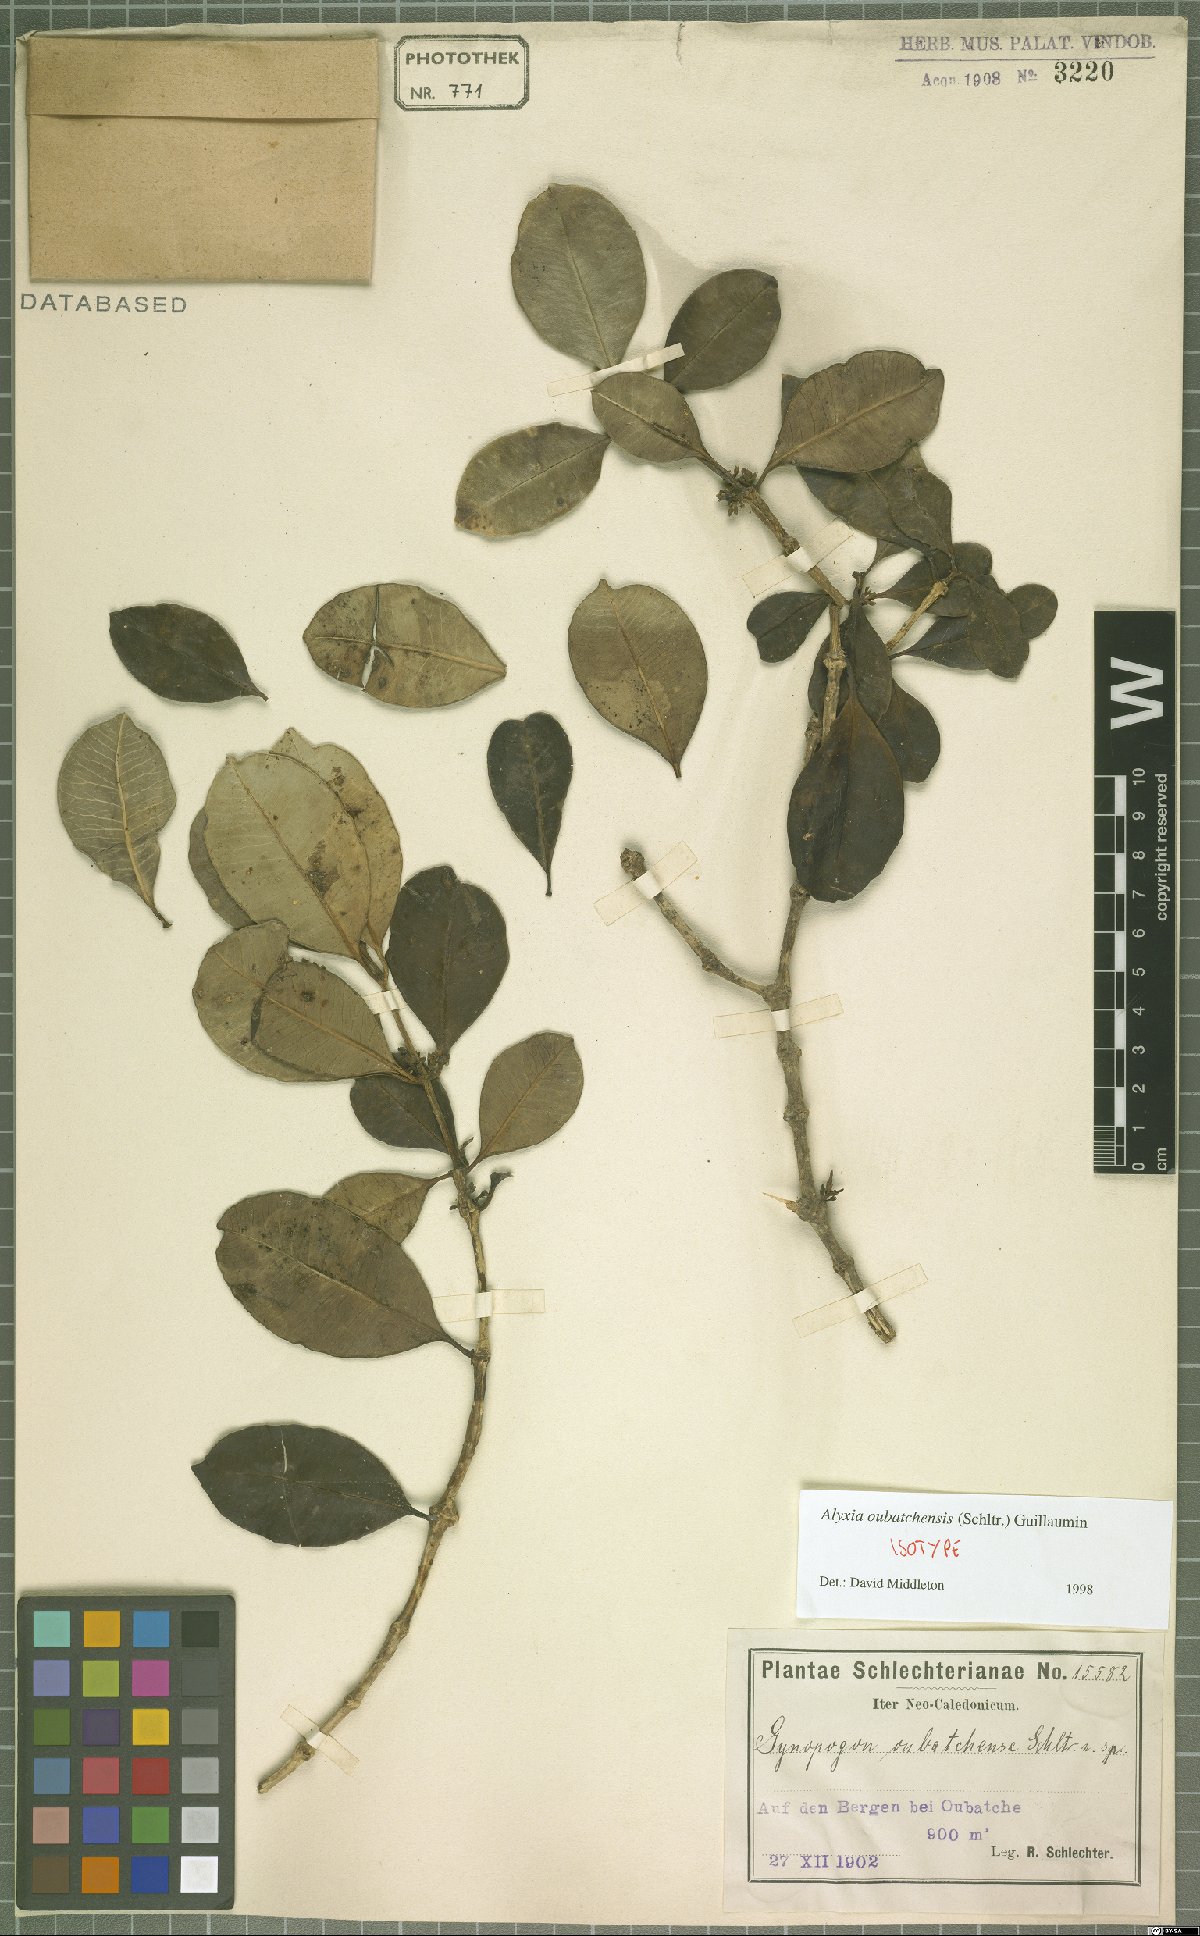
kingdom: Plantae
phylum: Tracheophyta
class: Magnoliopsida
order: Gentianales
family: Apocynaceae
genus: Alyxia
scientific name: Alyxia oubatchensis
